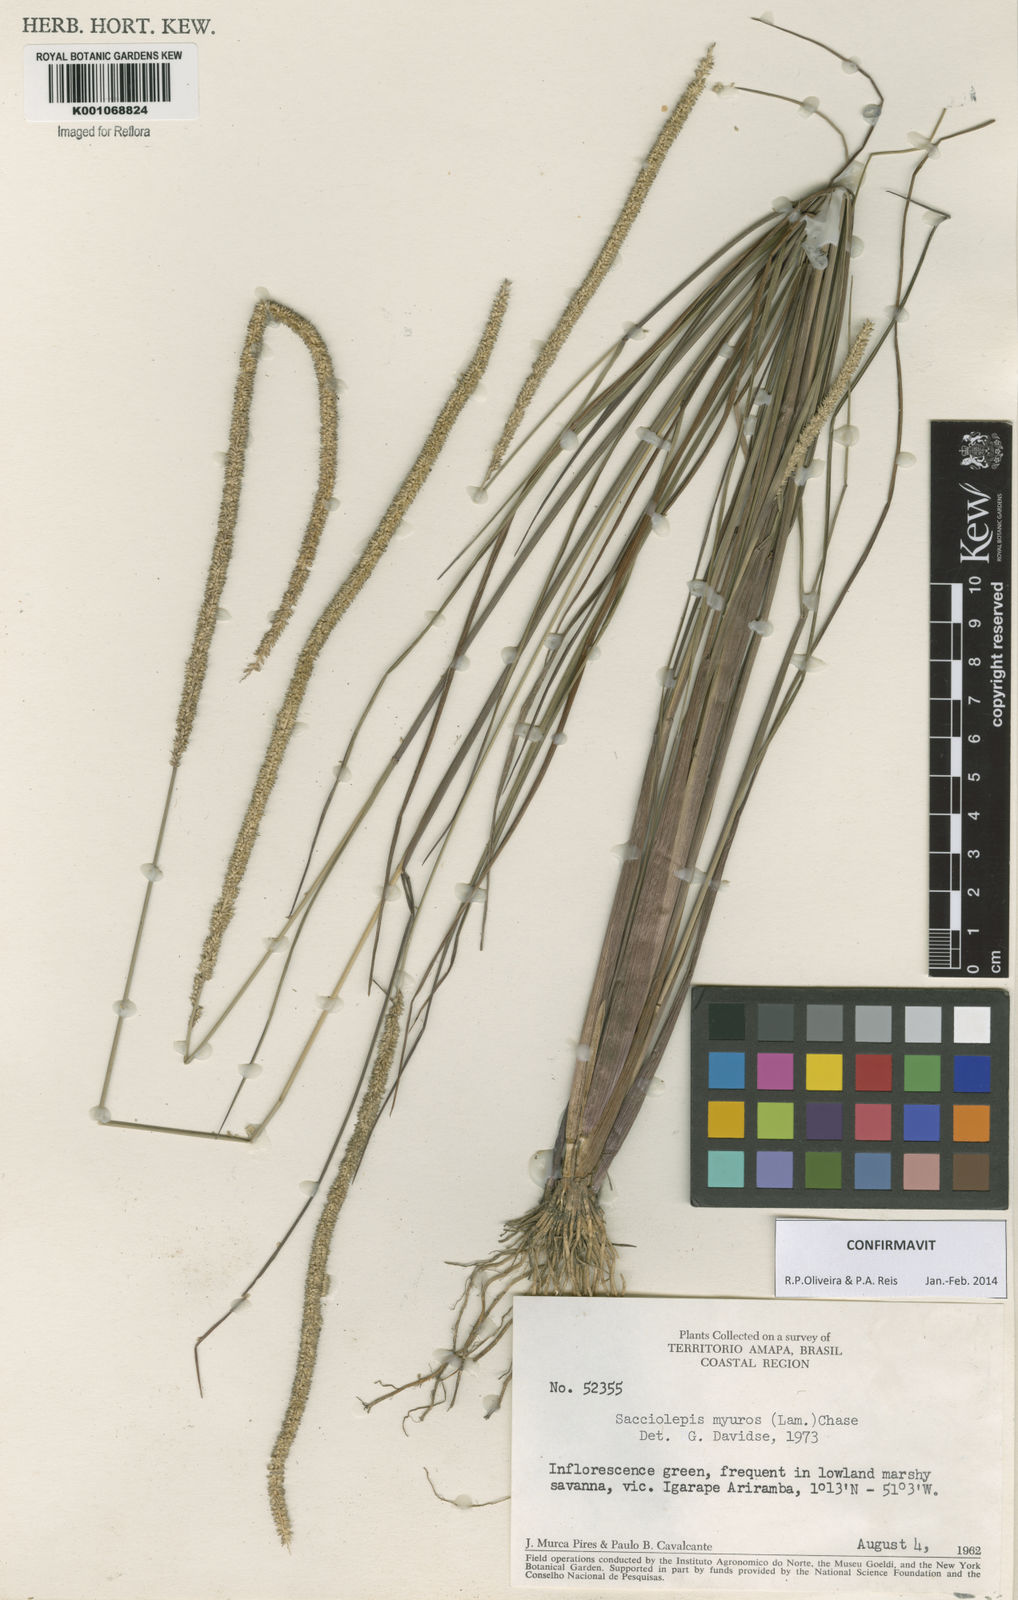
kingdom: Plantae
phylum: Tracheophyta
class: Liliopsida
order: Poales
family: Poaceae
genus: Sacciolepis
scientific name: Sacciolepis myuros
